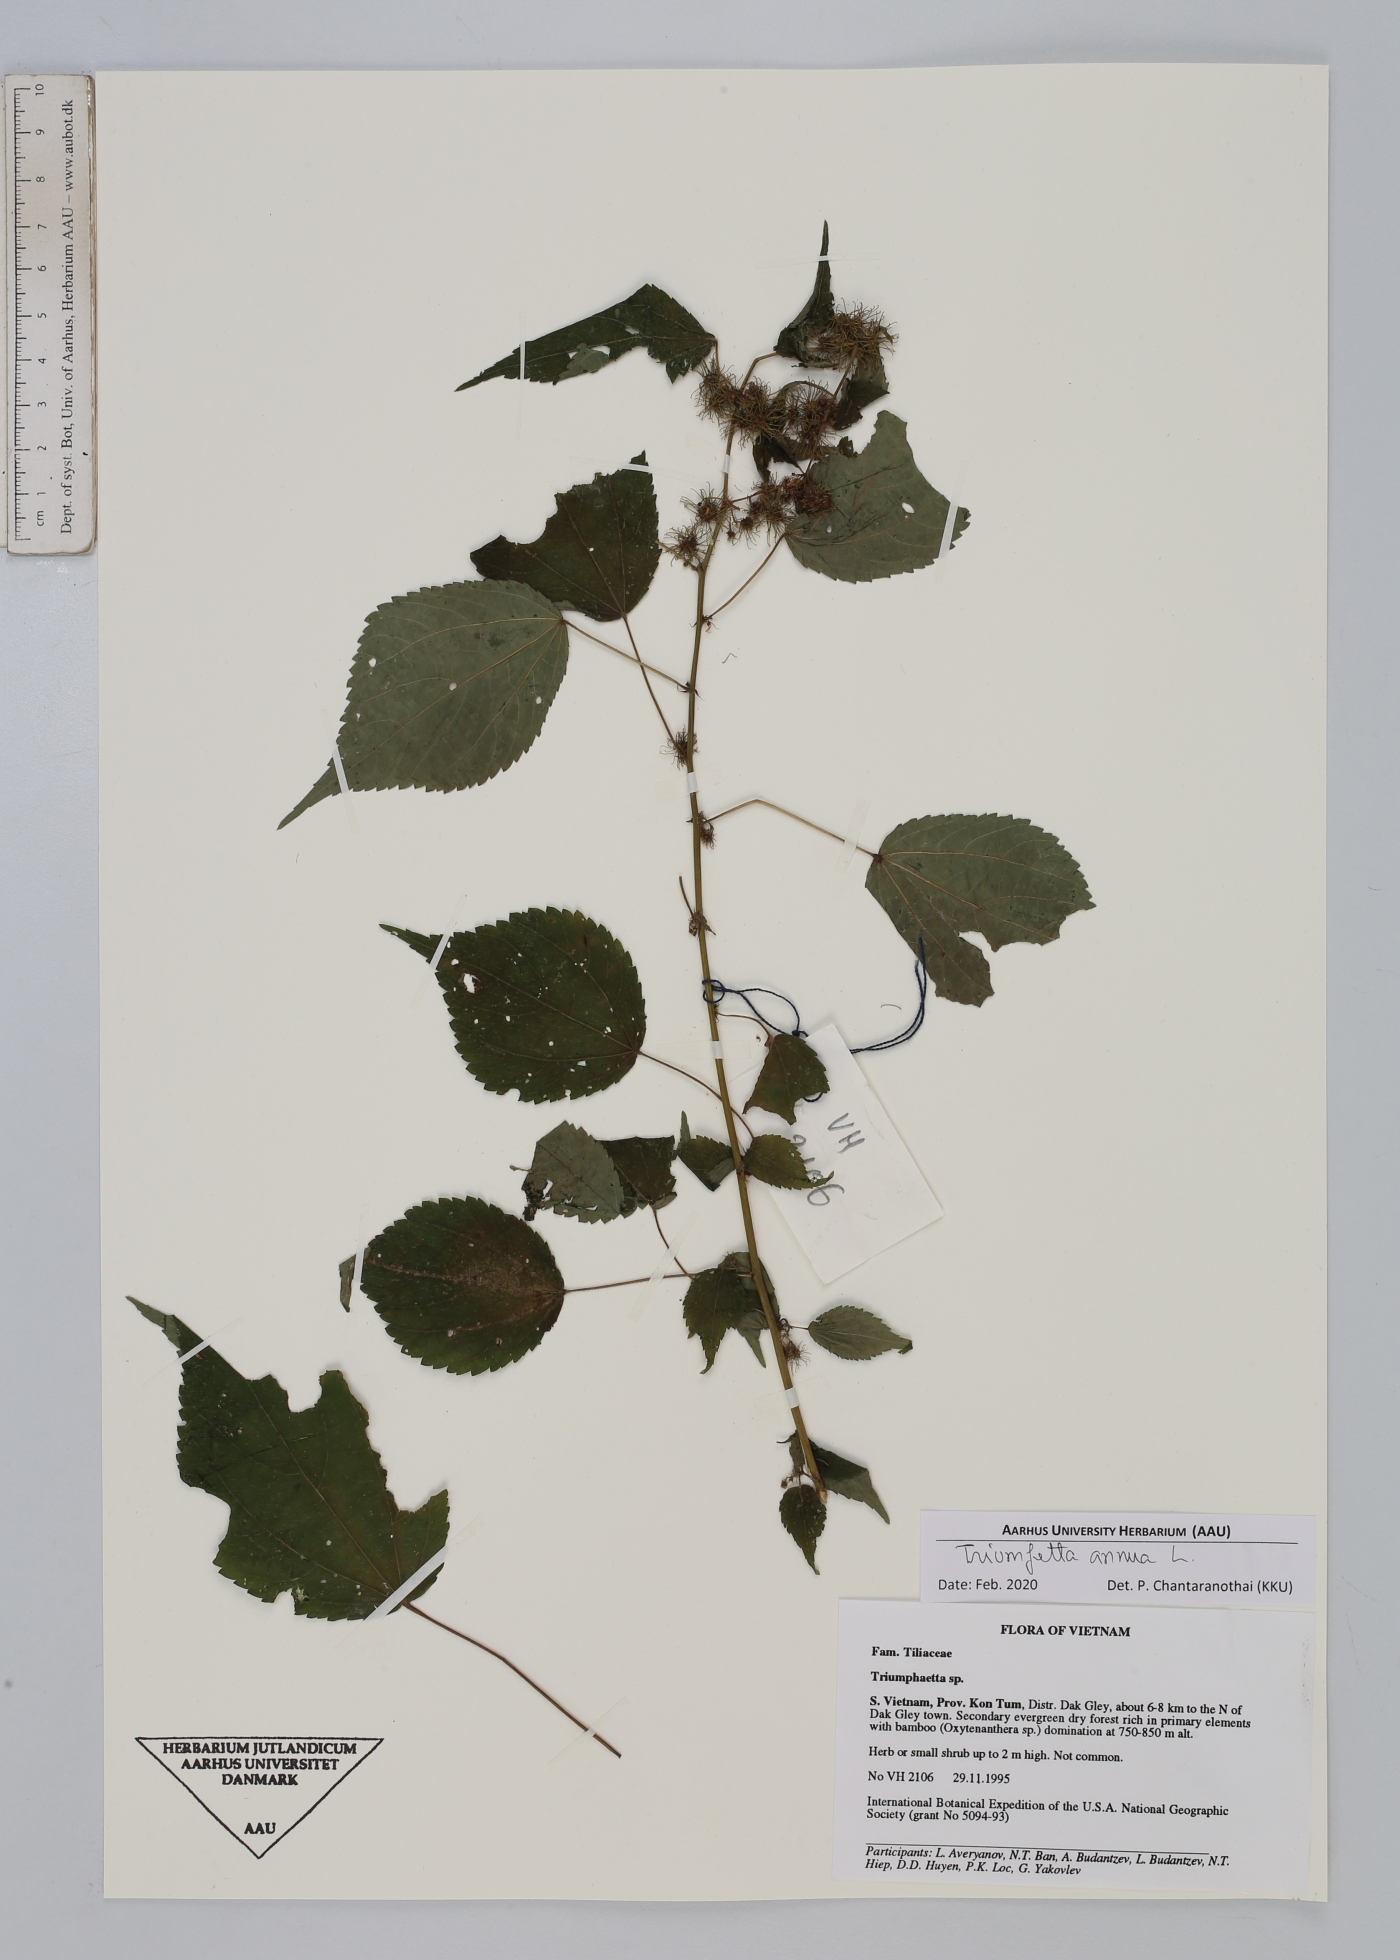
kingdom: Plantae
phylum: Tracheophyta
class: Magnoliopsida
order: Malvales
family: Malvaceae
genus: Triumfetta
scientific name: Triumfetta annua
